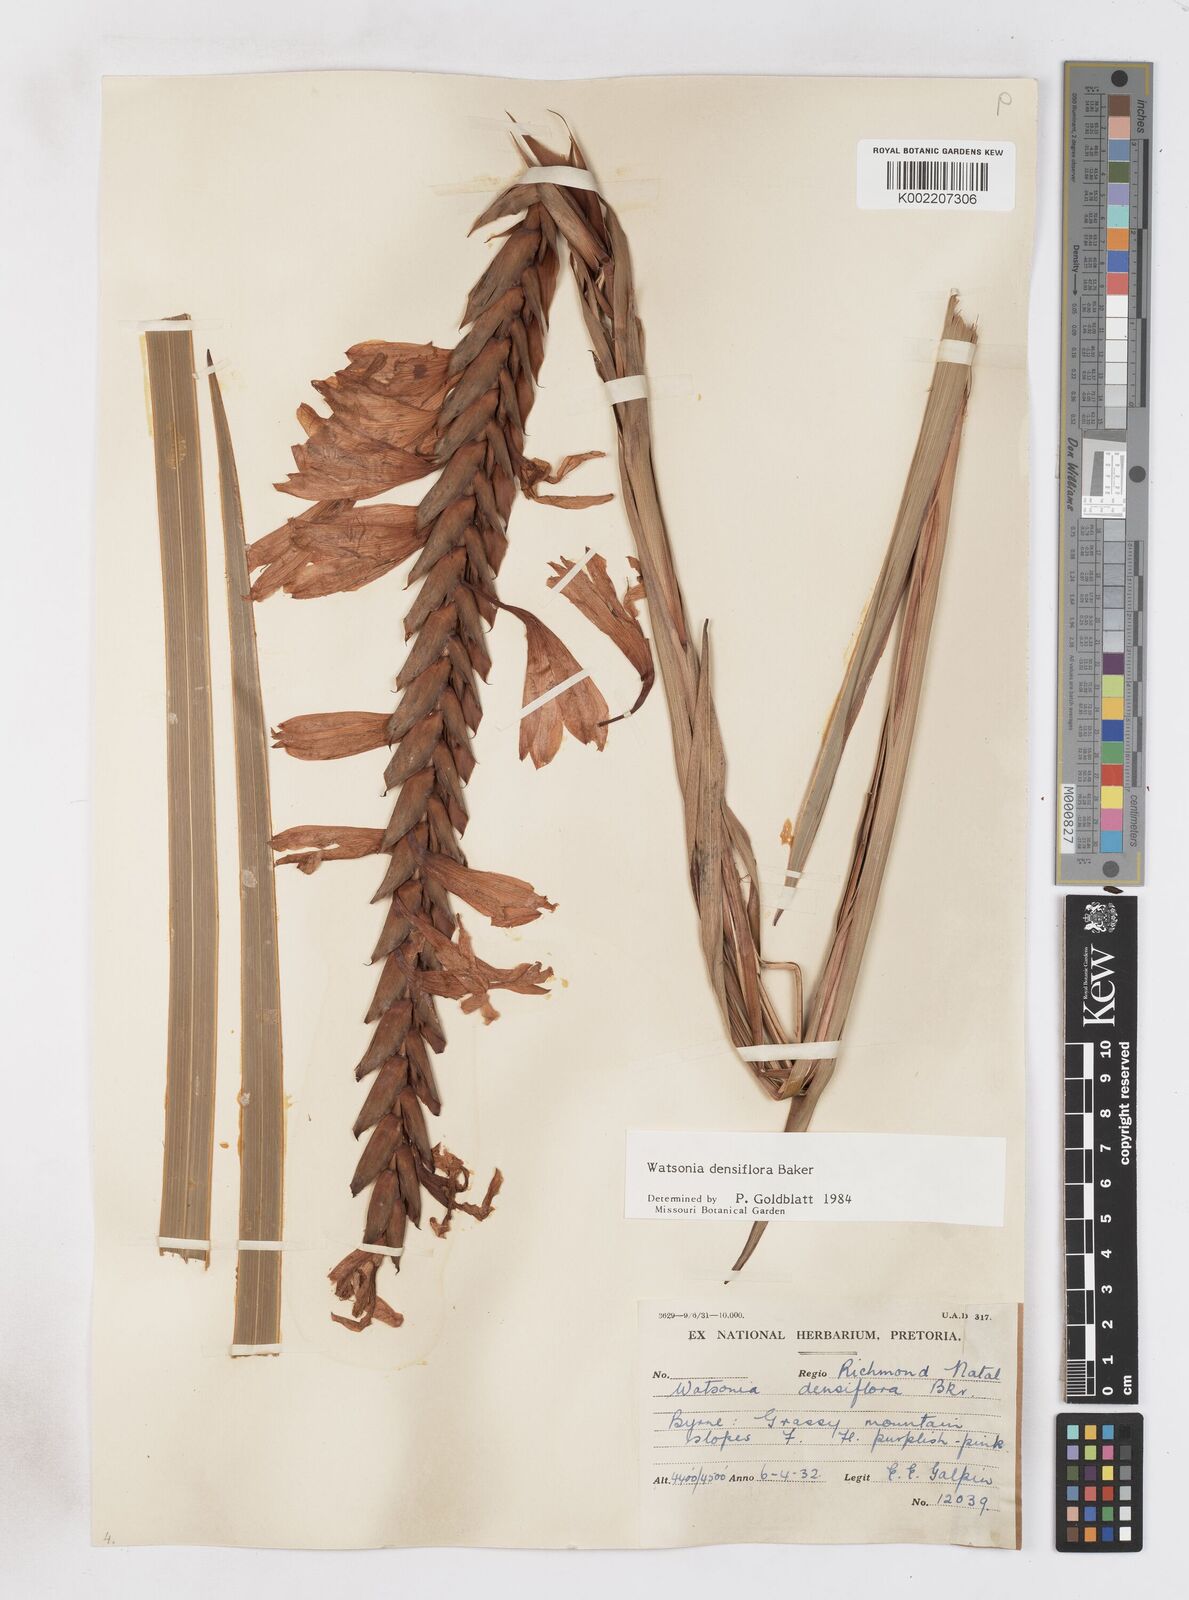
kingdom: Plantae
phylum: Tracheophyta
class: Liliopsida
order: Asparagales
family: Iridaceae
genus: Watsonia
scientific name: Watsonia densiflora
